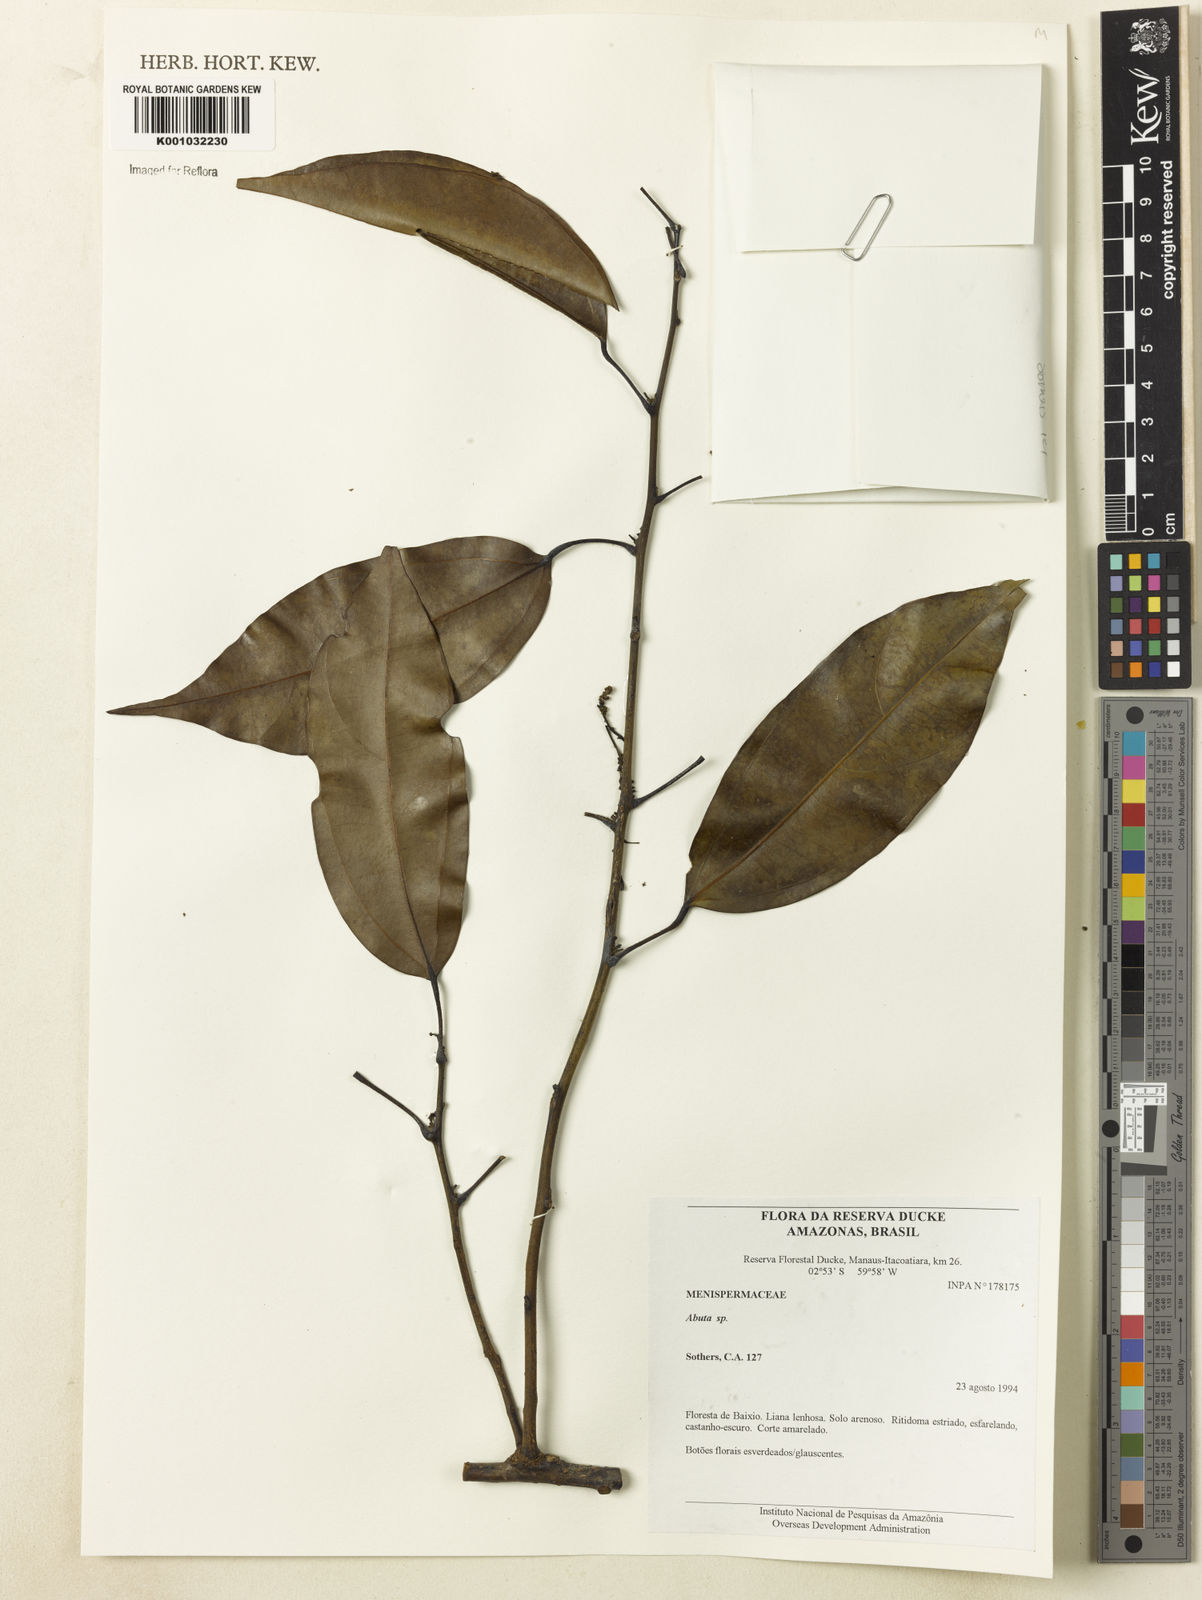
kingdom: Plantae
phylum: Tracheophyta
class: Magnoliopsida
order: Ranunculales
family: Menispermaceae
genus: Abuta
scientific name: Abuta
